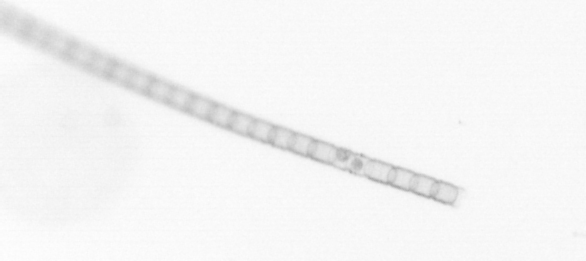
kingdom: Chromista
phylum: Ochrophyta
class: Bacillariophyceae
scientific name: Bacillariophyceae
